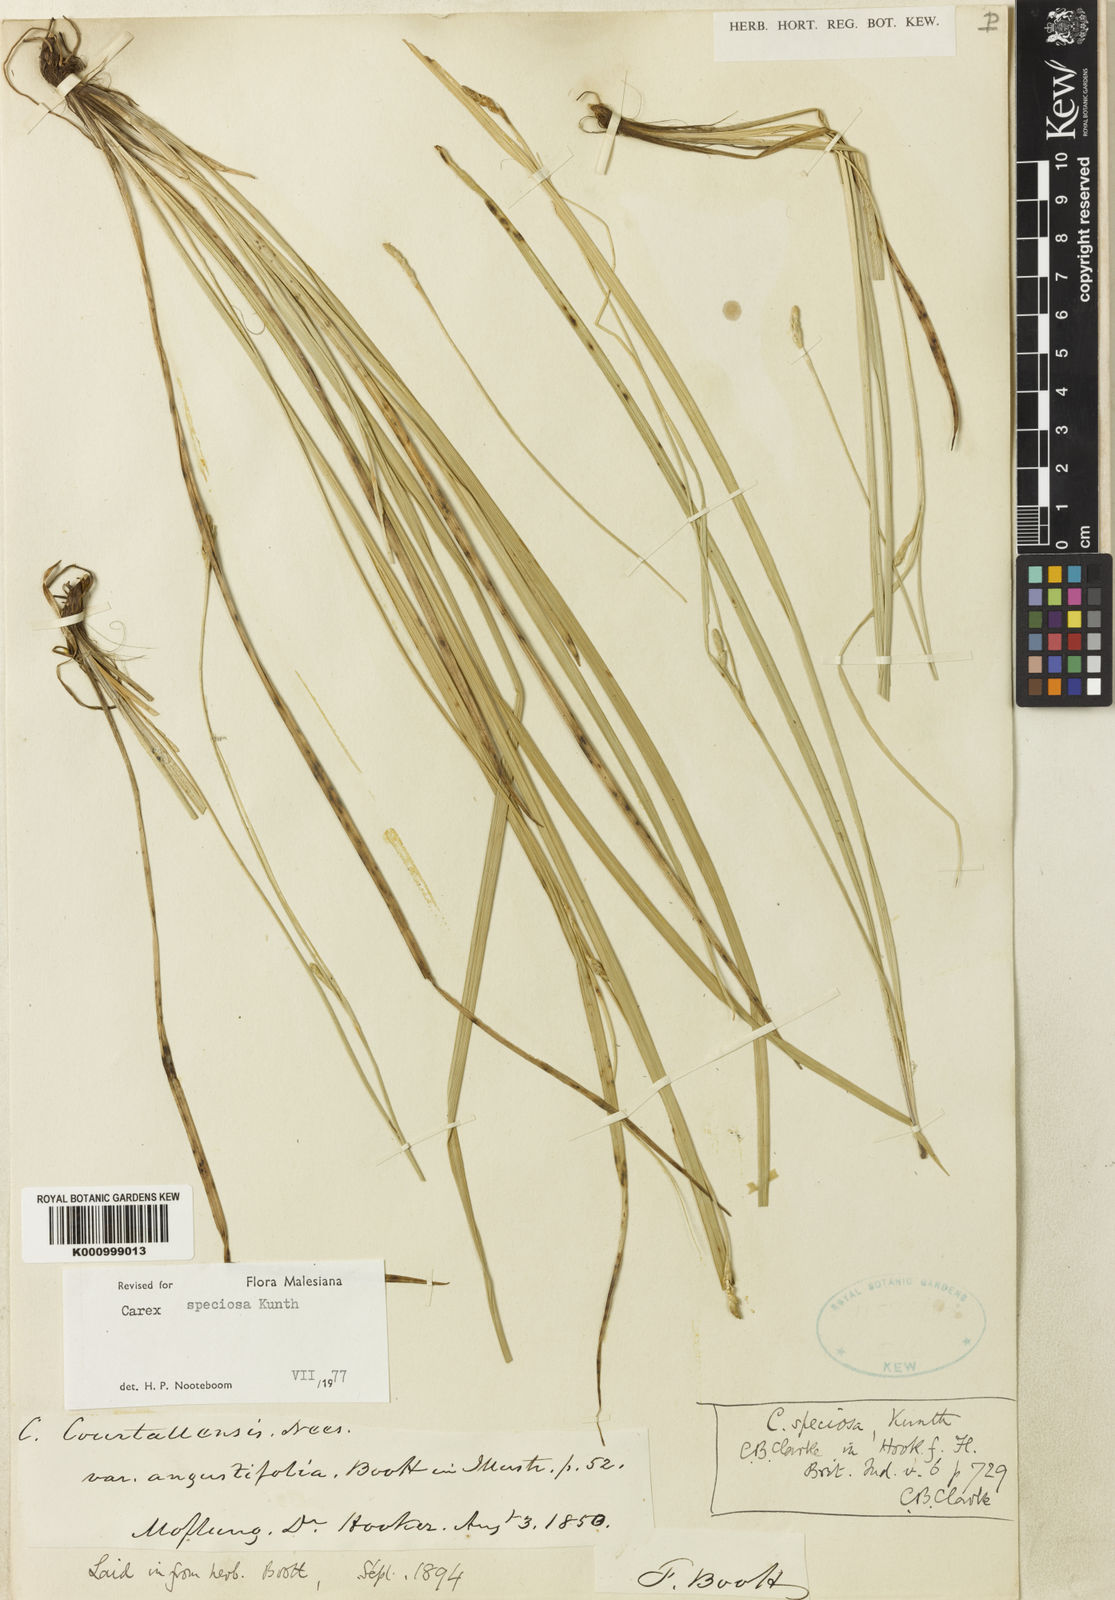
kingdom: Plantae
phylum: Tracheophyta
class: Liliopsida
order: Poales
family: Cyperaceae
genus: Carex
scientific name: Carex speciosa
